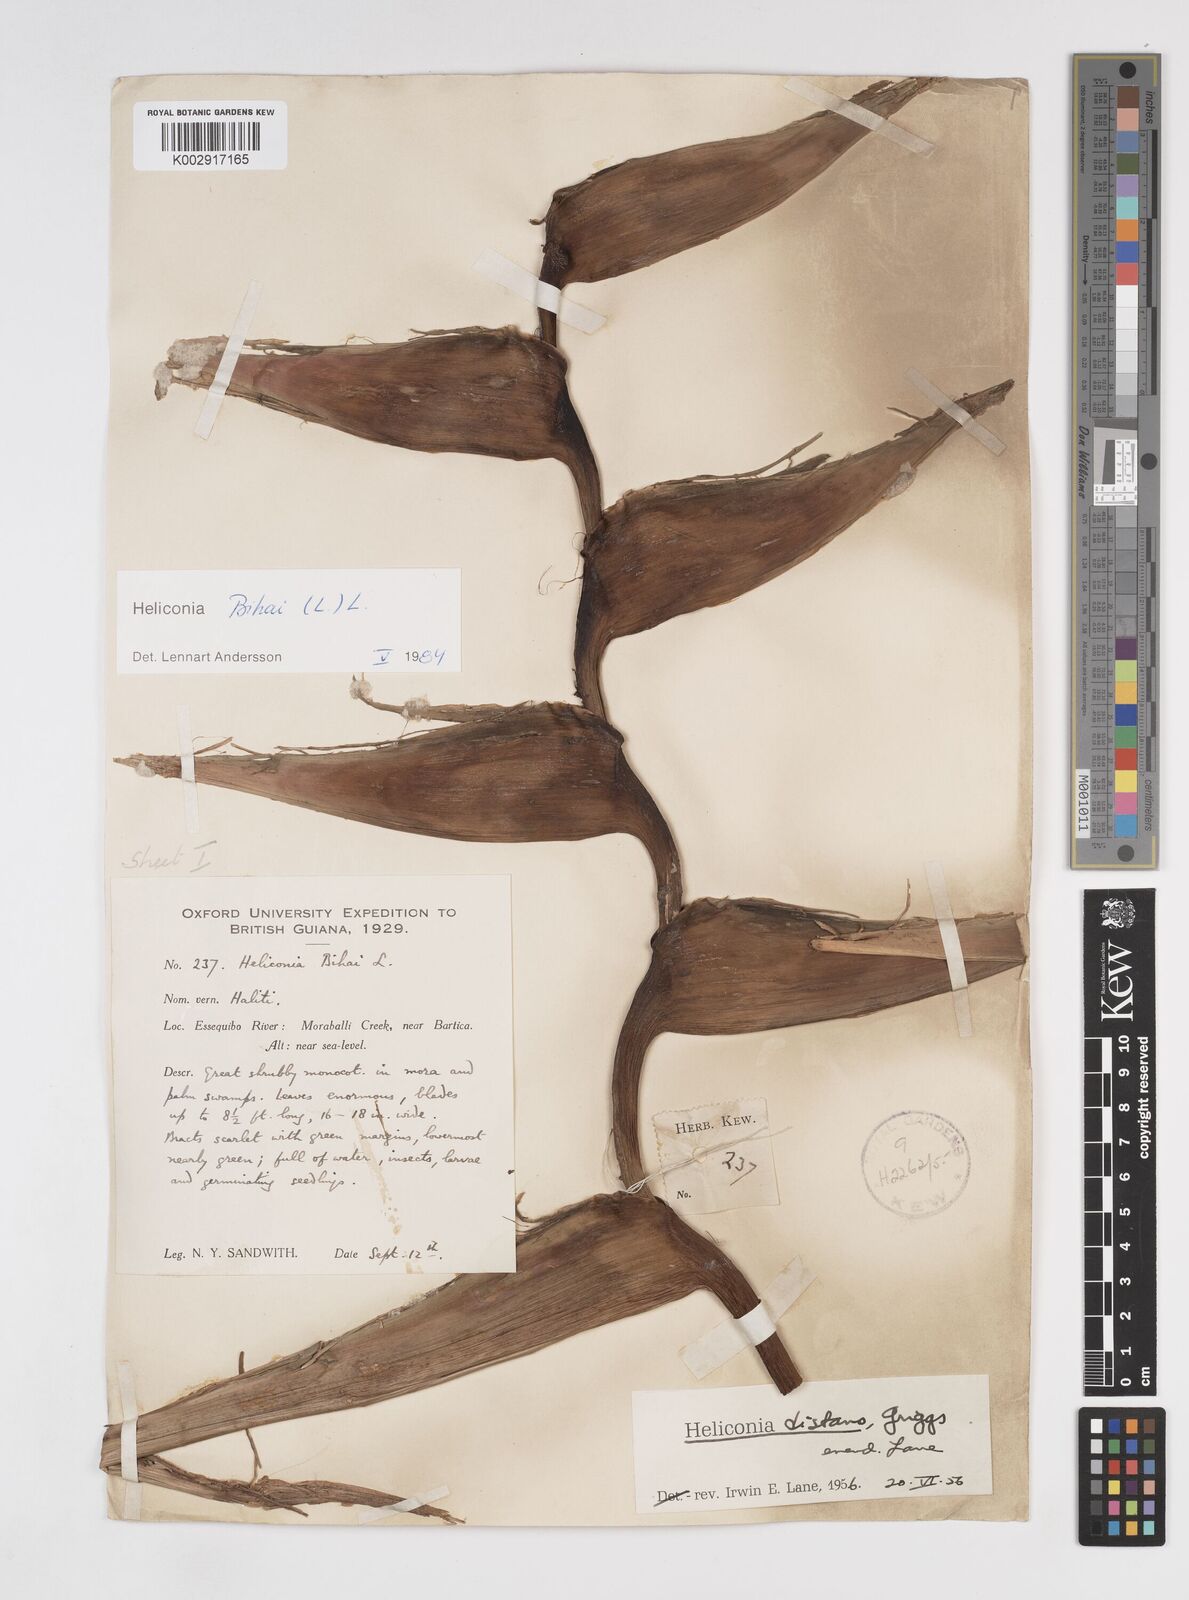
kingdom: Plantae
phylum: Tracheophyta
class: Liliopsida
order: Zingiberales
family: Heliconiaceae
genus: Heliconia
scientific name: Heliconia bihai
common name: Macaw flower
